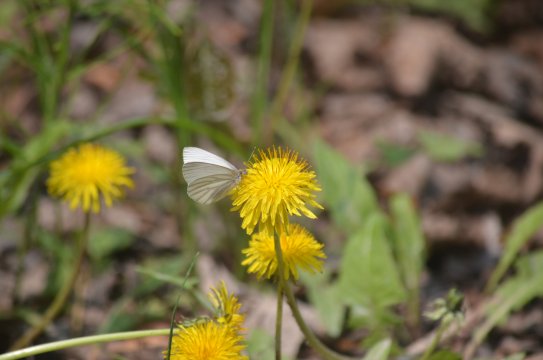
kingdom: Animalia
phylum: Arthropoda
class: Insecta
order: Lepidoptera
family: Pieridae
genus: Pieris
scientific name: Pieris oleracea
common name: Mustard White
